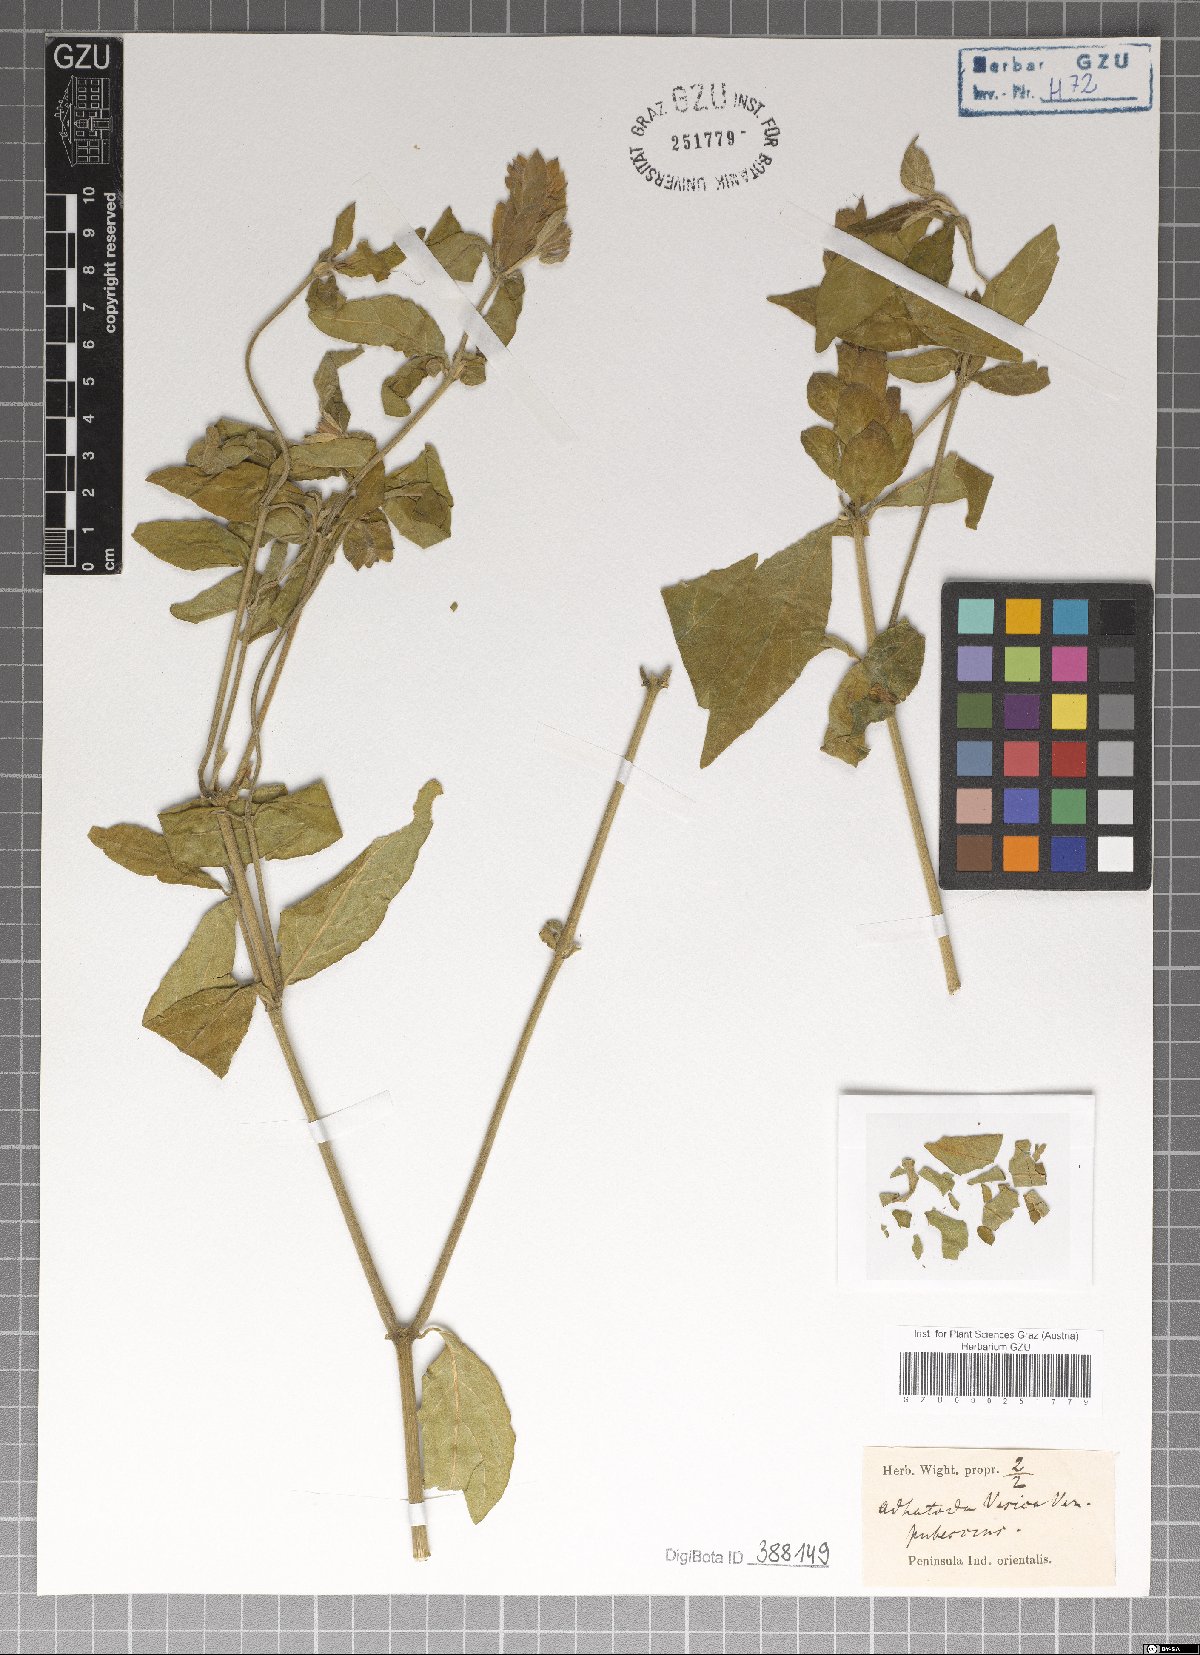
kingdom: Plantae
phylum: Tracheophyta
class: Magnoliopsida
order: Lamiales
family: Acanthaceae
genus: Justicia
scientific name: Justicia adhatoda
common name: Malabar nut
